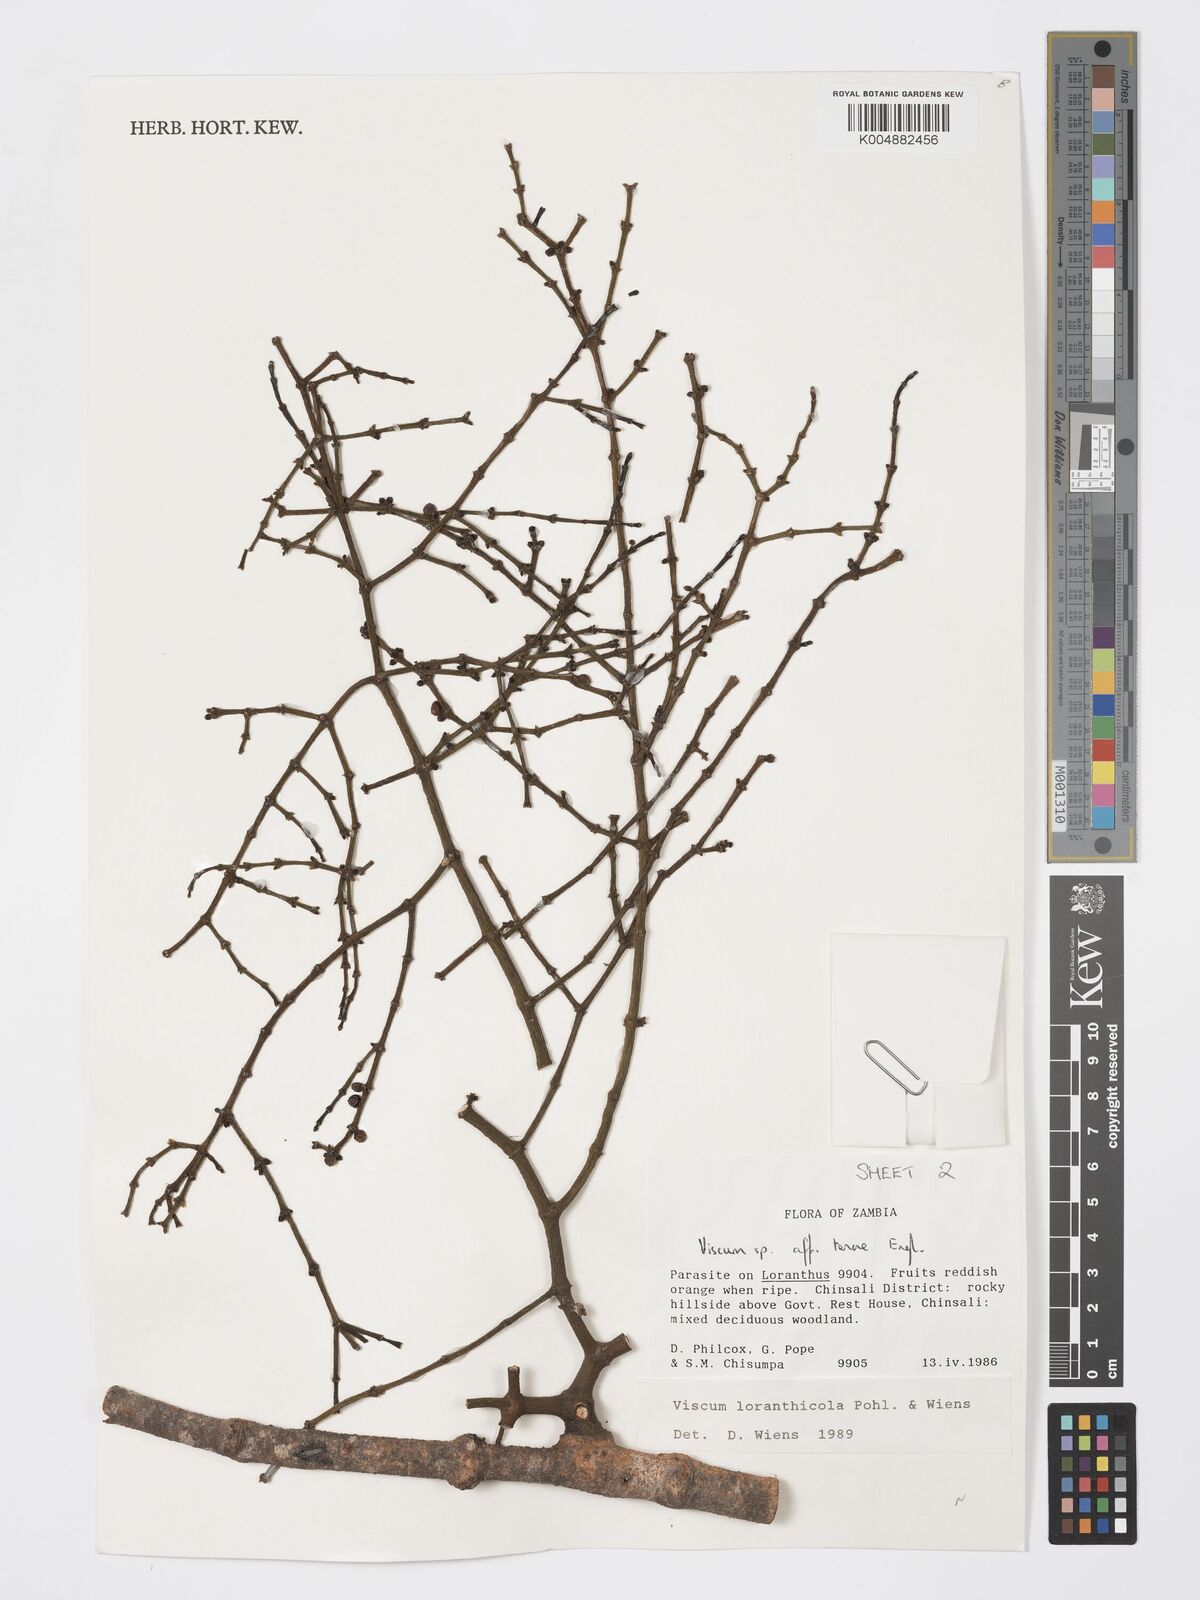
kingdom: Plantae
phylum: Tracheophyta
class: Magnoliopsida
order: Santalales
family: Viscaceae
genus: Viscum
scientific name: Viscum loranthicola
